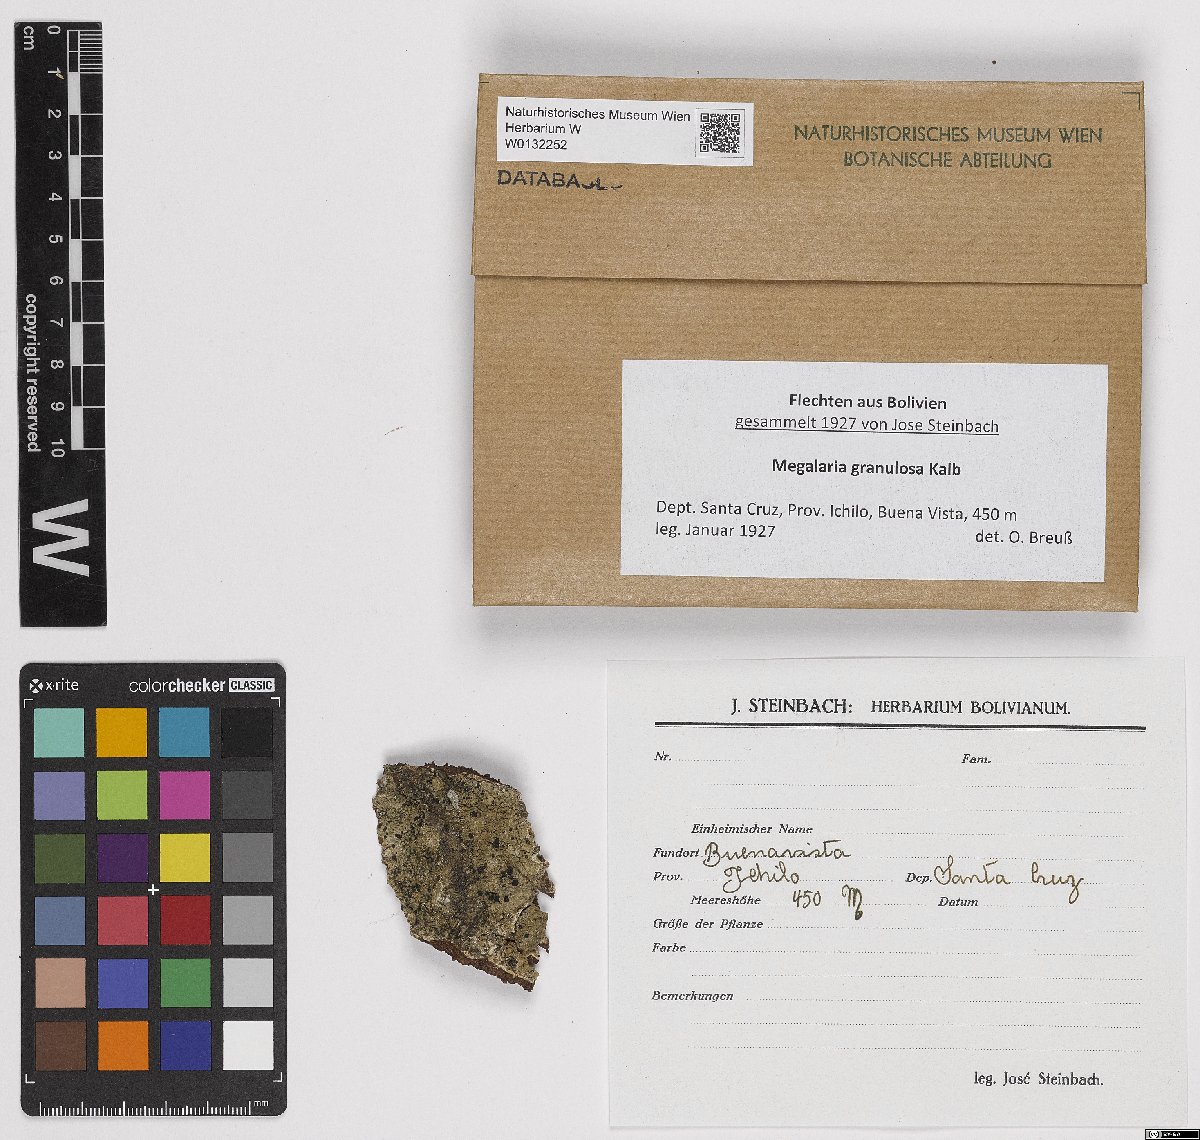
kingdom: Fungi
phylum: Ascomycota
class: Lecanoromycetes
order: Lecanorales
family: Ramalinaceae
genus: Megalaria
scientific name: Megalaria
